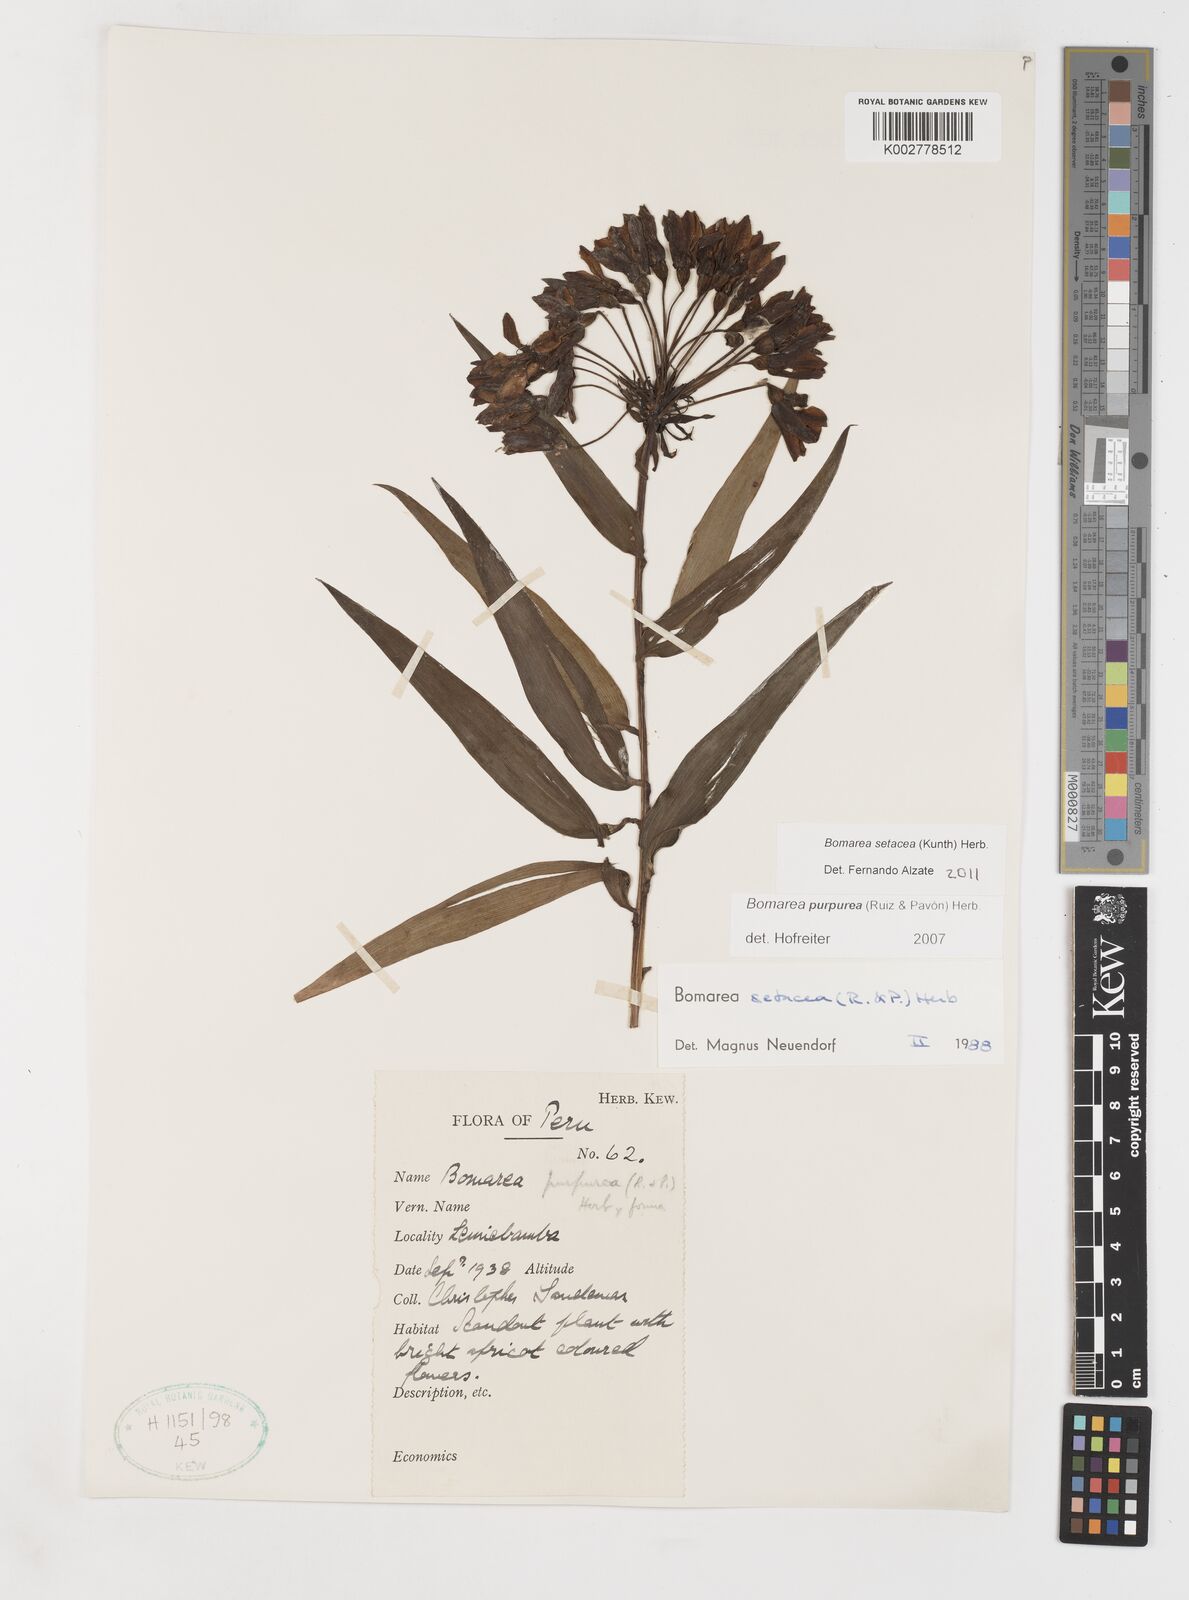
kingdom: Plantae
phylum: Tracheophyta
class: Liliopsida
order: Liliales
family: Alstroemeriaceae
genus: Bomarea
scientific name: Bomarea setacea
